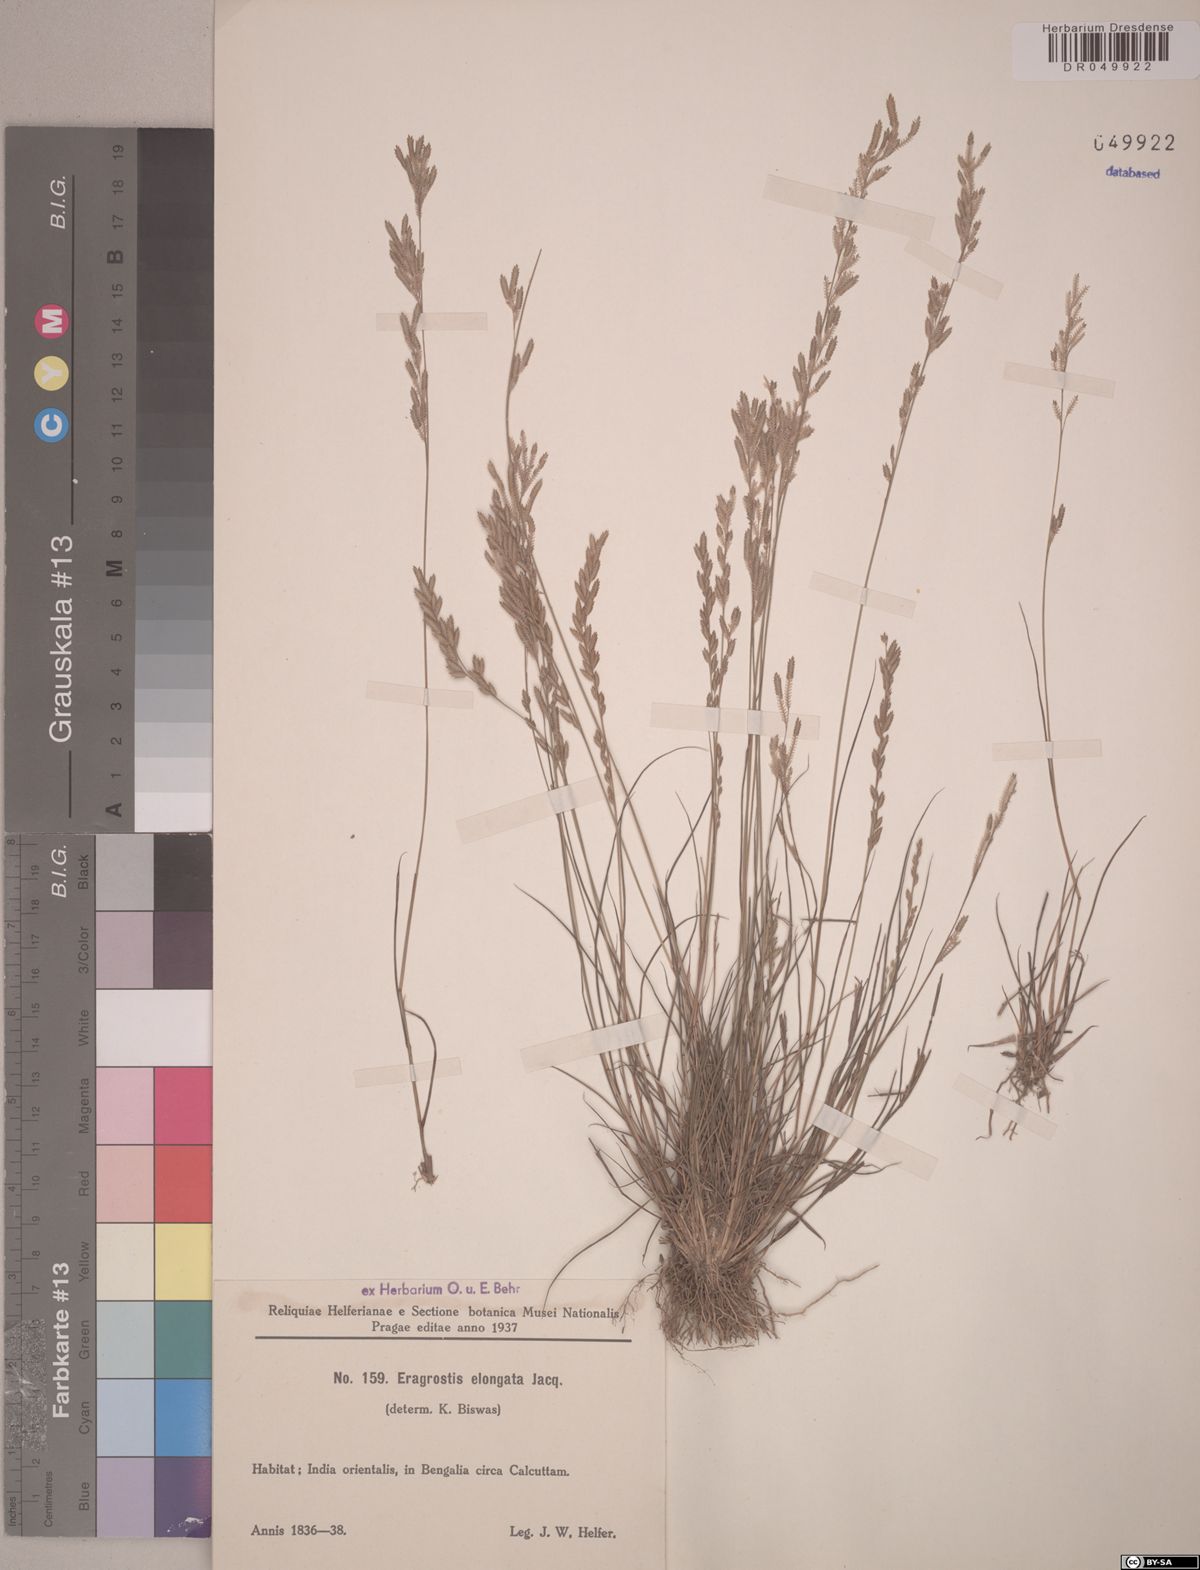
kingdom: Plantae
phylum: Tracheophyta
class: Liliopsida
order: Poales
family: Poaceae
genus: Eragrostis
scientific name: Eragrostis elongata
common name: Long lovegrass
